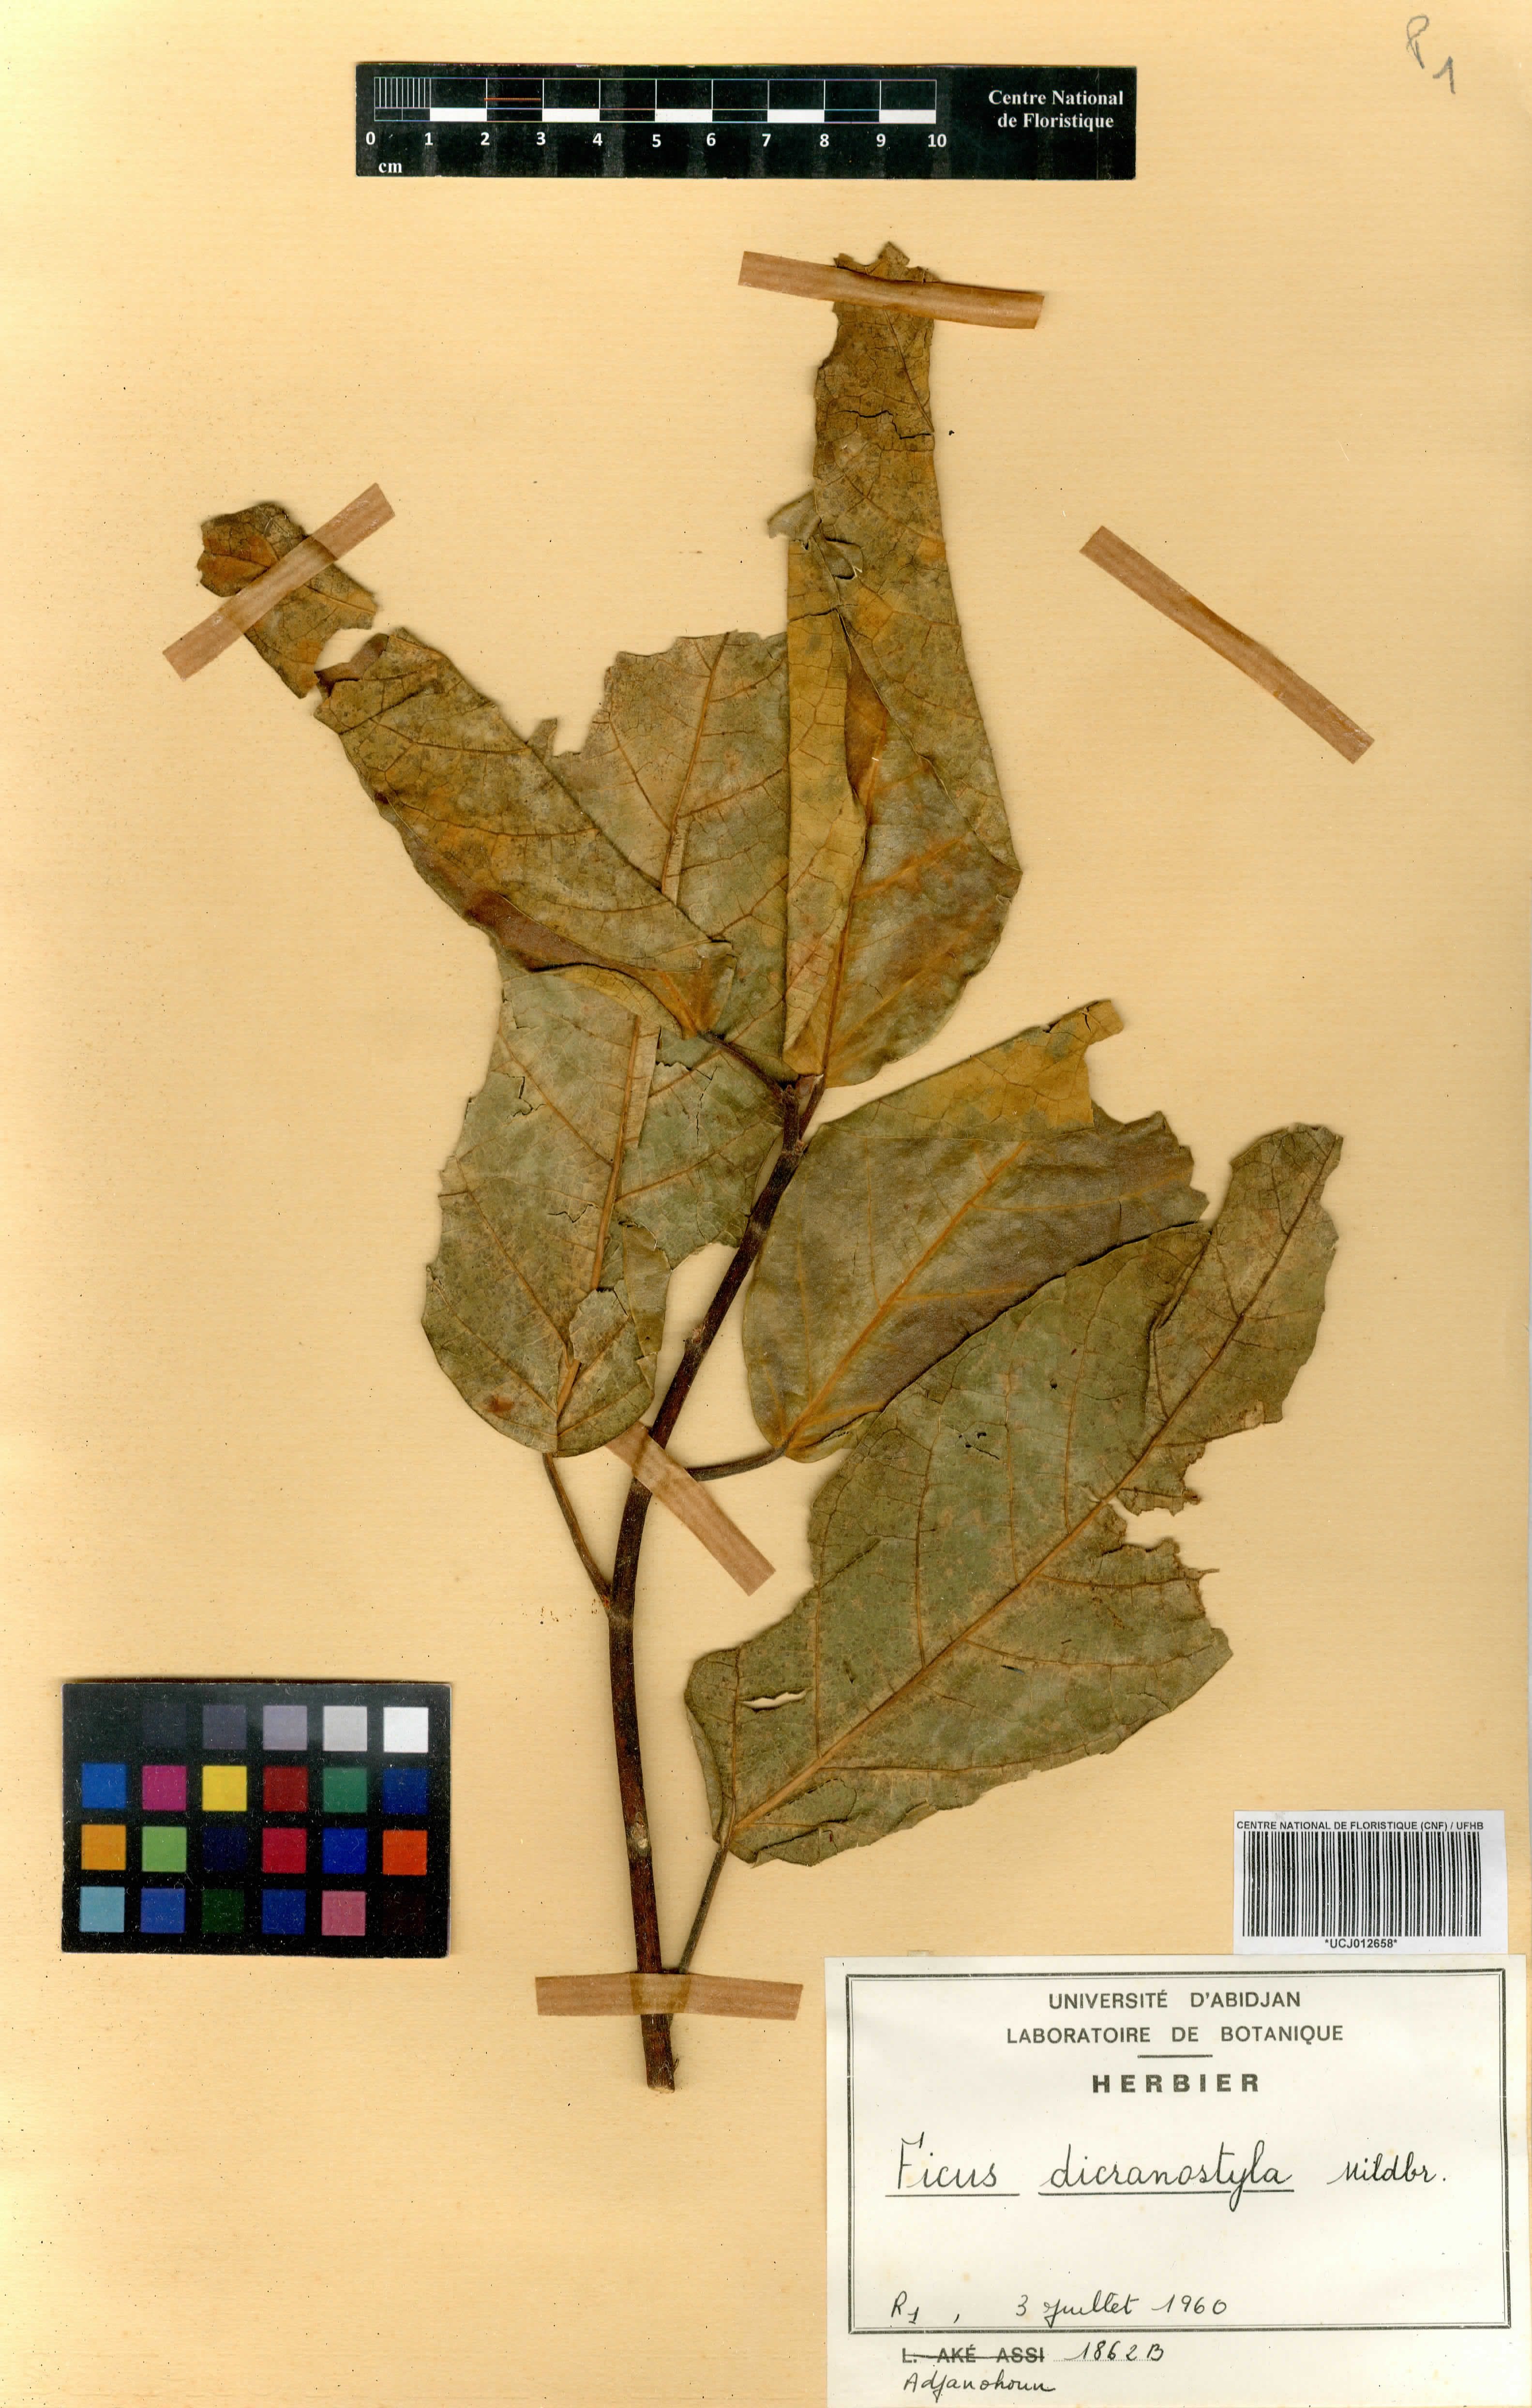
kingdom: Plantae
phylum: Tracheophyta
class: Magnoliopsida
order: Rosales
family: Moraceae
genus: Ficus
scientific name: Ficus dicranostyla
